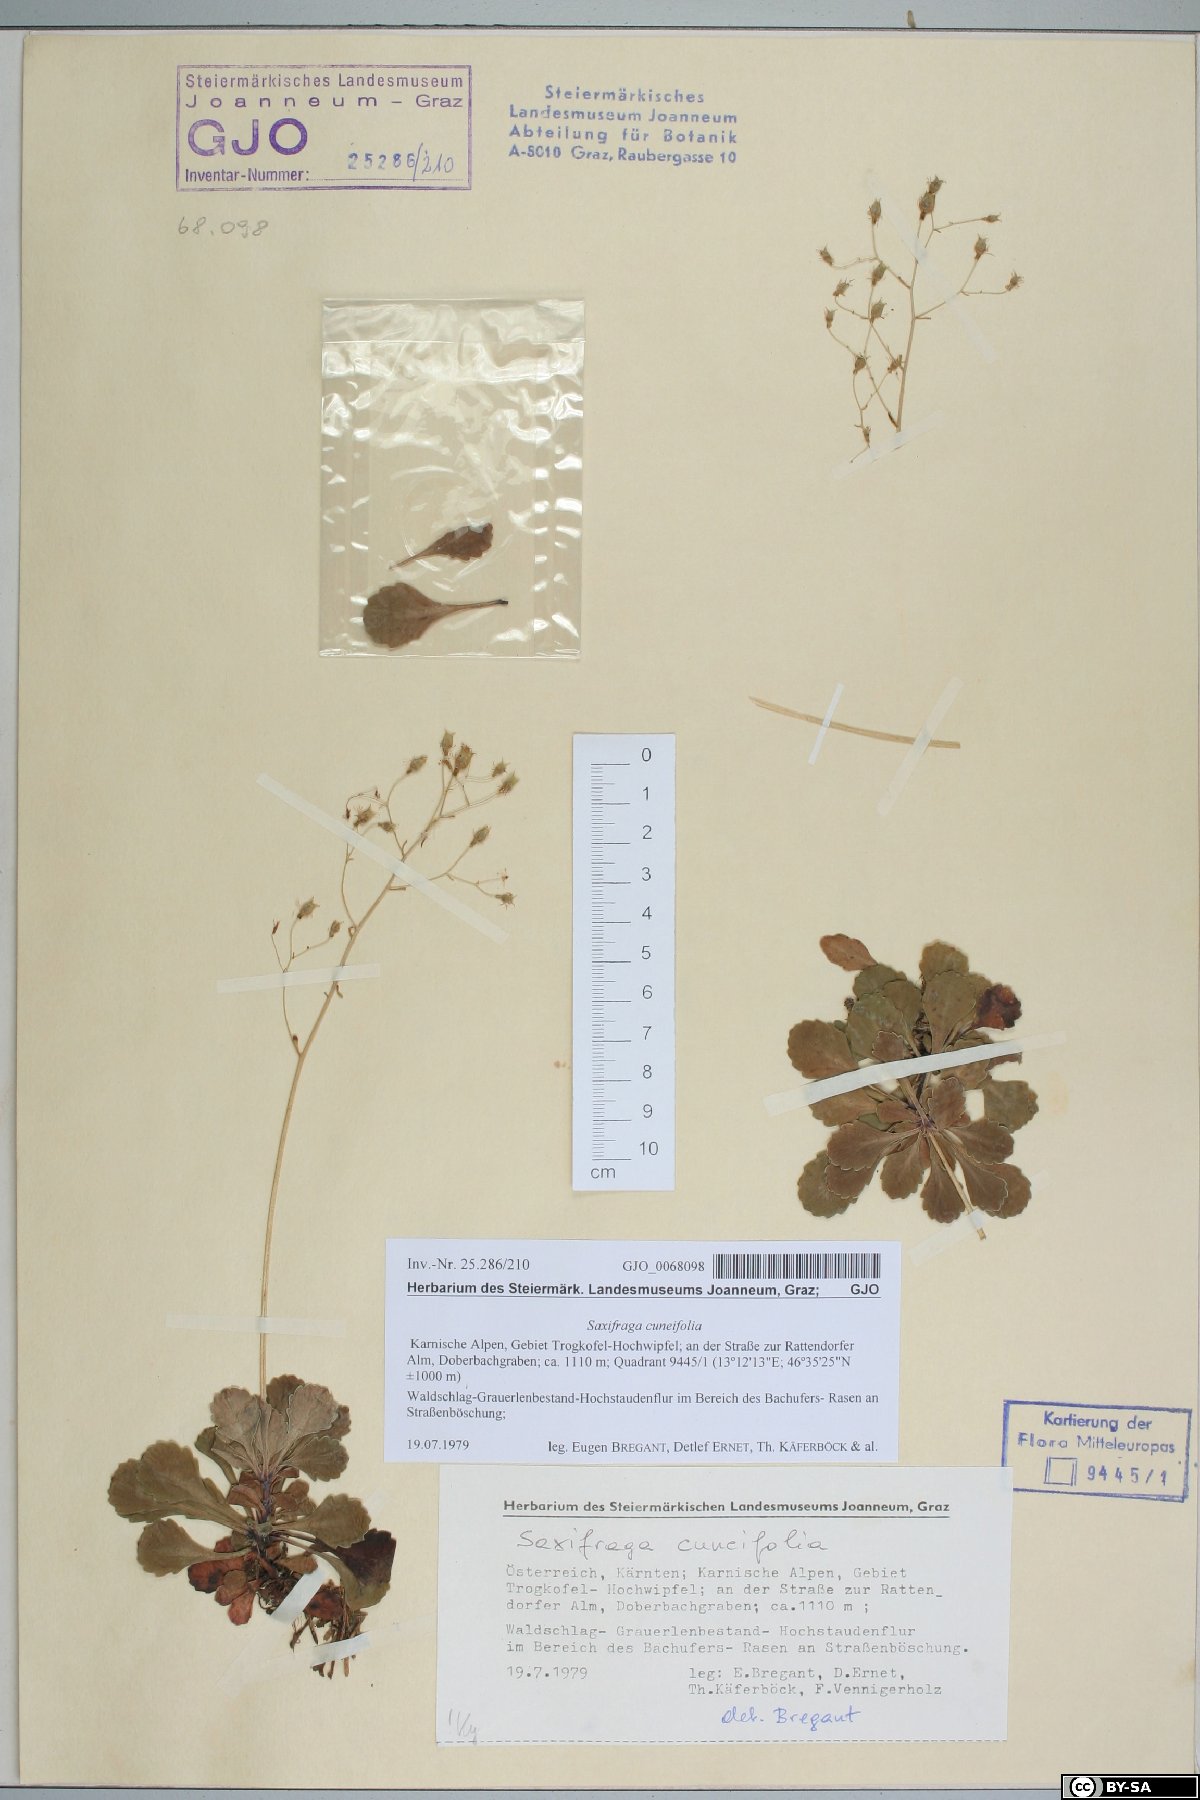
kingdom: Plantae
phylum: Tracheophyta
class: Magnoliopsida
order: Saxifragales
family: Saxifragaceae
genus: Saxifraga
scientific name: Saxifraga cuneifolia
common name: Lesser londonpride
